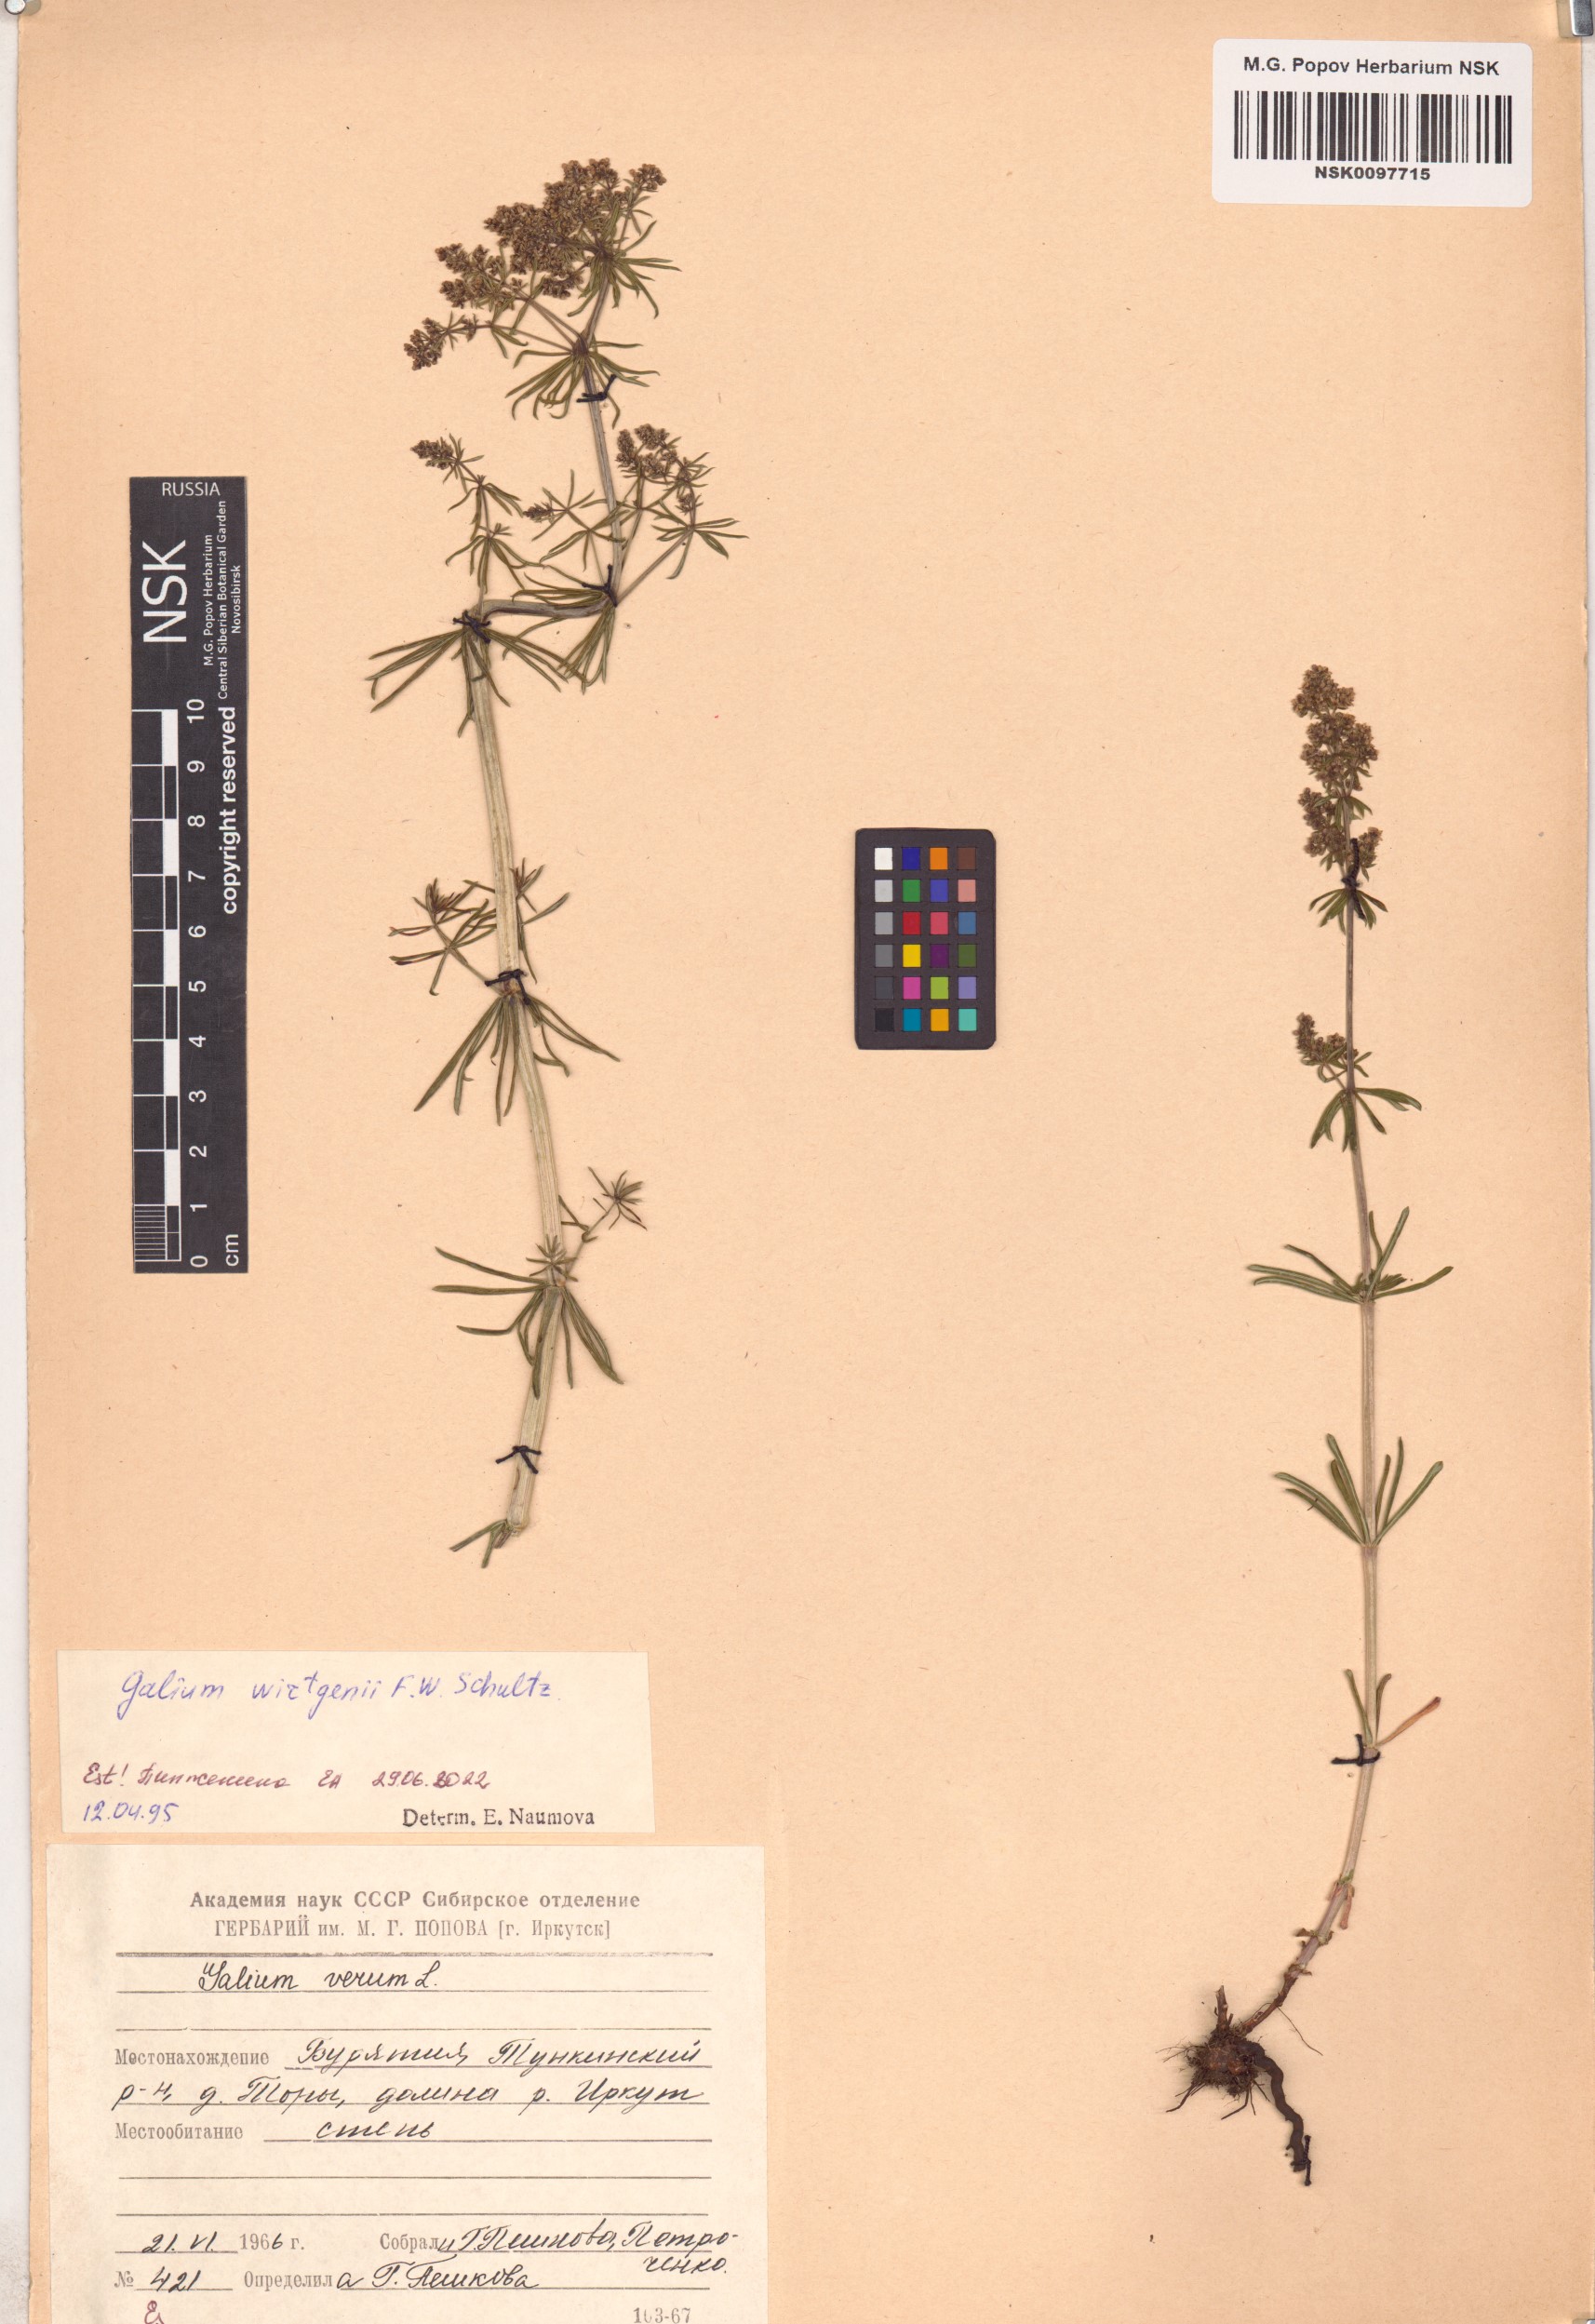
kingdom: Plantae
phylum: Tracheophyta
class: Magnoliopsida
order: Gentianales
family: Rubiaceae
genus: Galium
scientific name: Galium verum
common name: Lady's bedstraw
